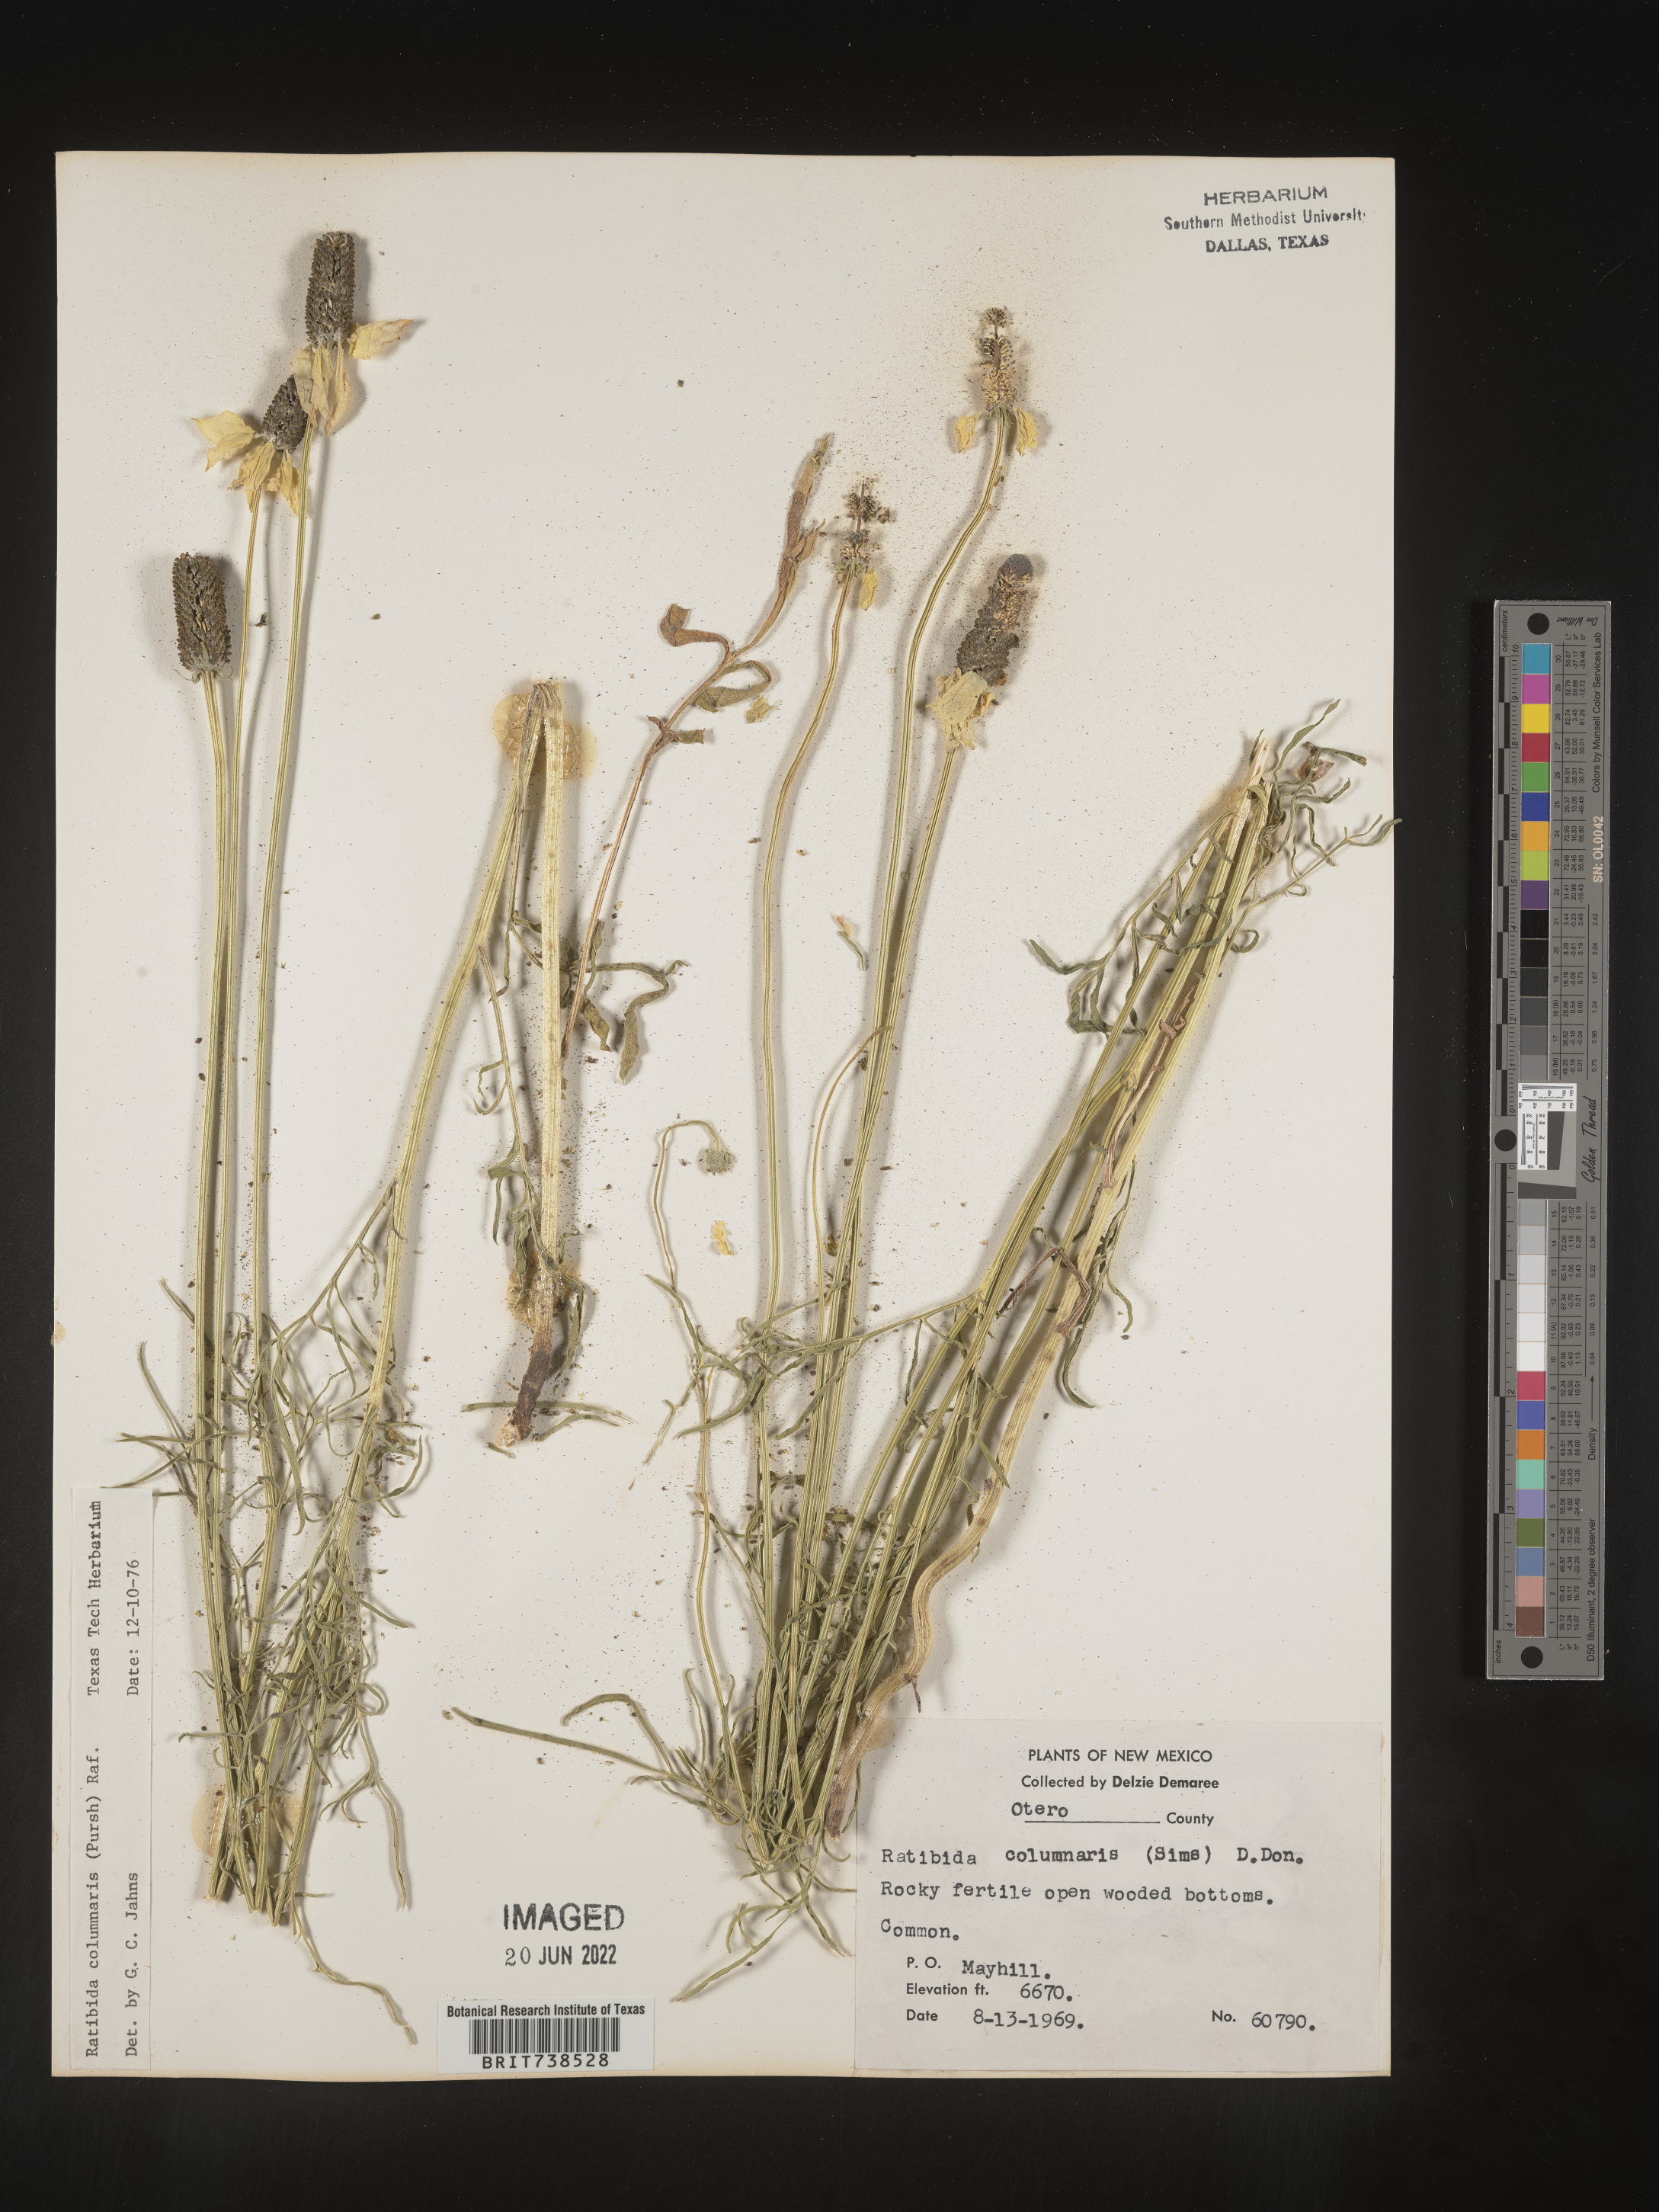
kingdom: Plantae
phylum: Tracheophyta
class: Magnoliopsida
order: Asterales
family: Asteraceae
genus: Ratibida
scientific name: Ratibida columnifera
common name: Prairie coneflower
